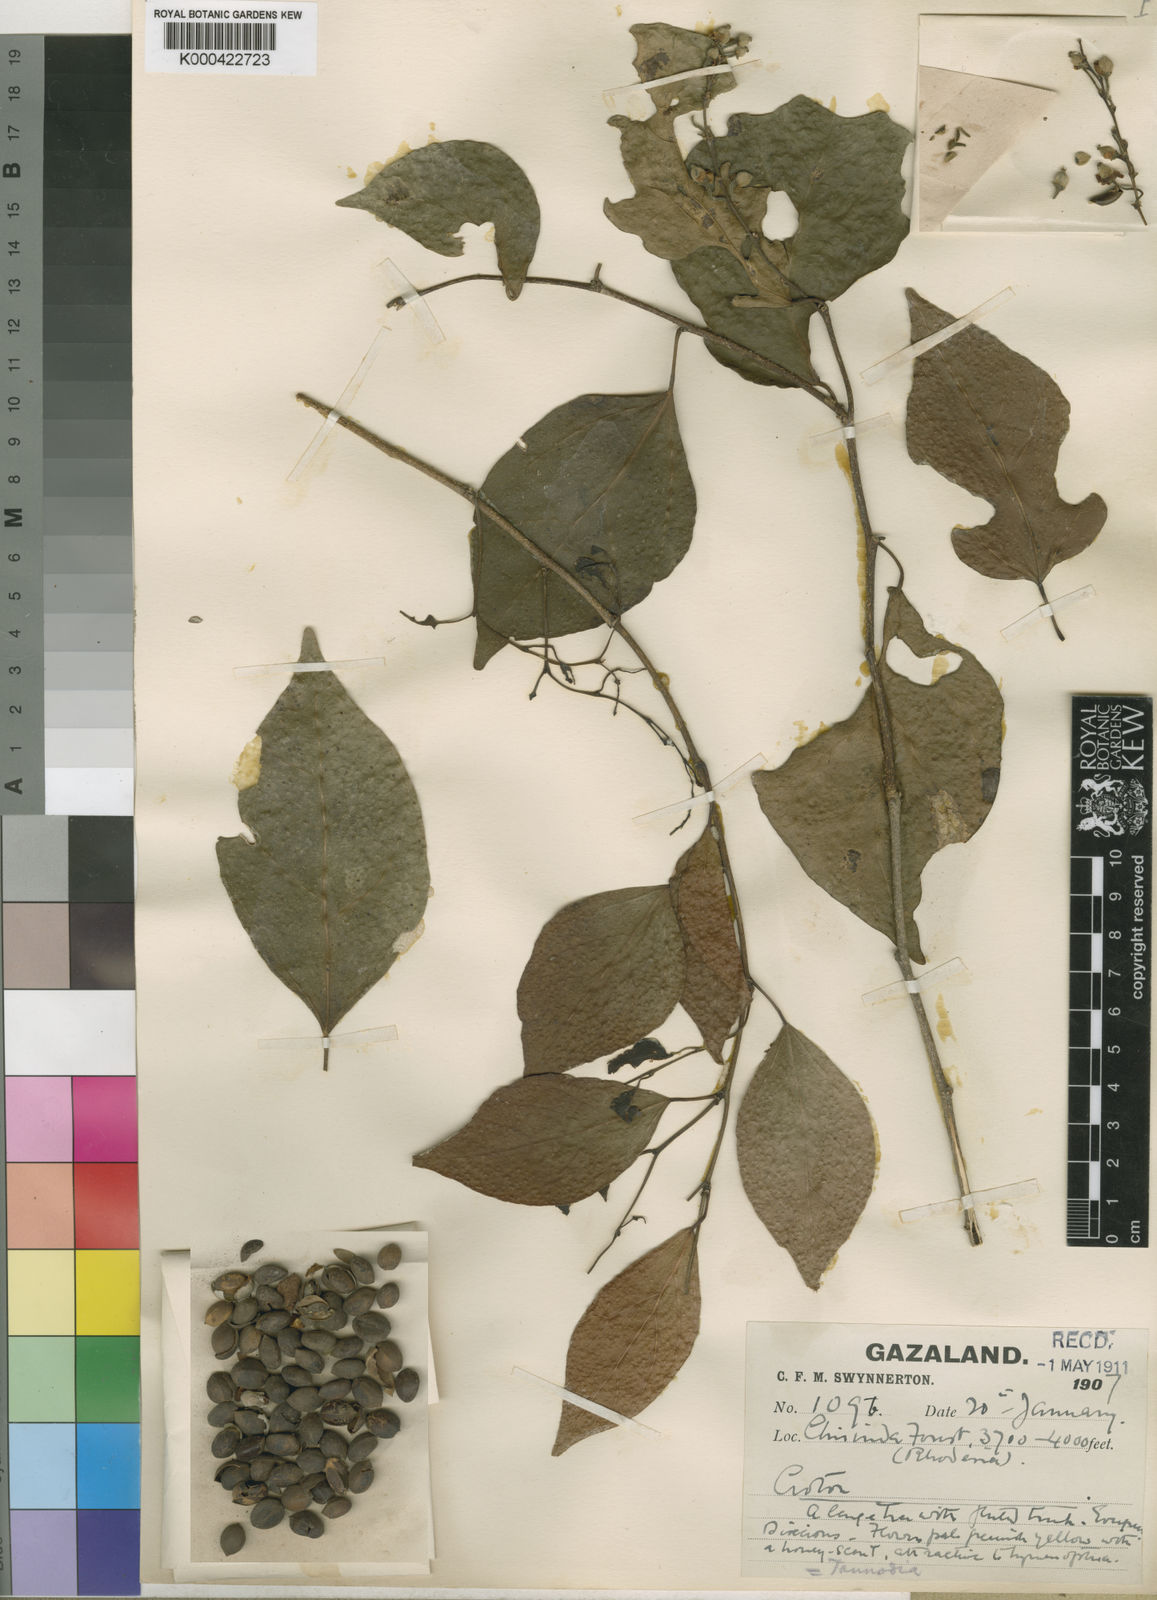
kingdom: Plantae
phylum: Tracheophyta
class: Magnoliopsida
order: Malpighiales
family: Euphorbiaceae
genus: Tannodia
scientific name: Tannodia swynnertonii
